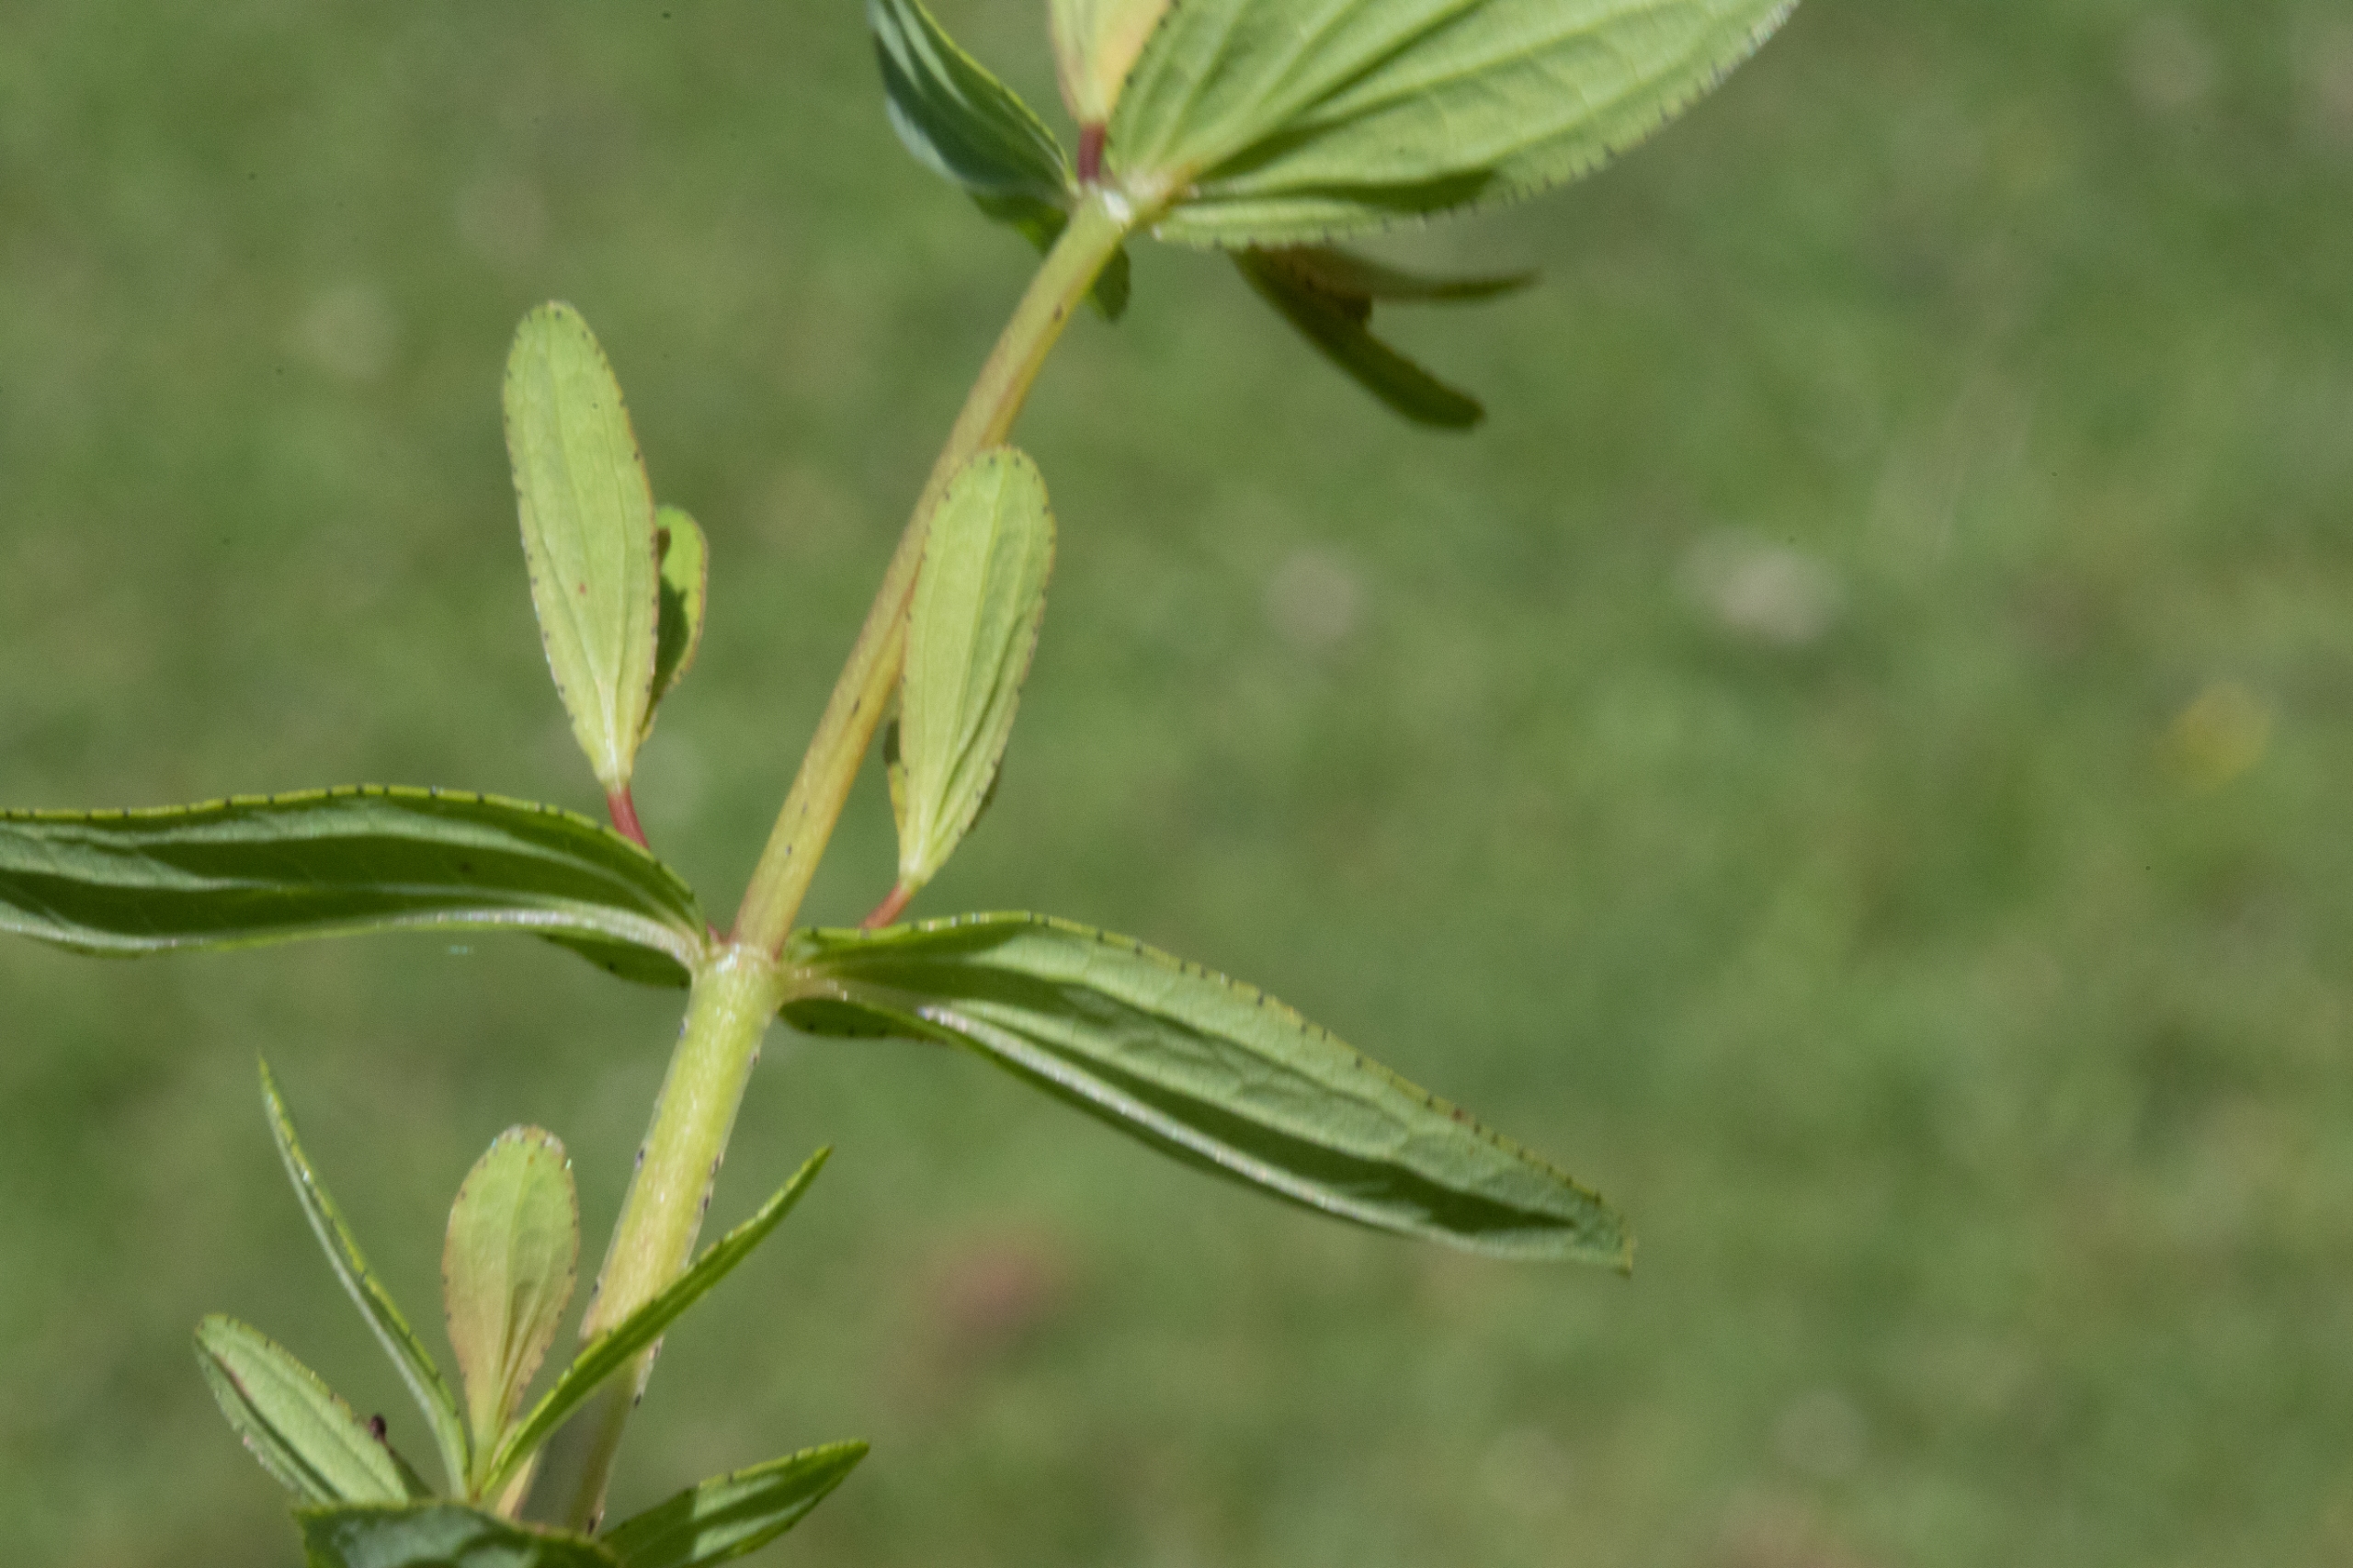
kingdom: Plantae
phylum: Tracheophyta
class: Magnoliopsida
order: Malpighiales
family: Hypericaceae
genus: Hypericum
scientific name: Hypericum perforatum
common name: Prikbladet perikon
